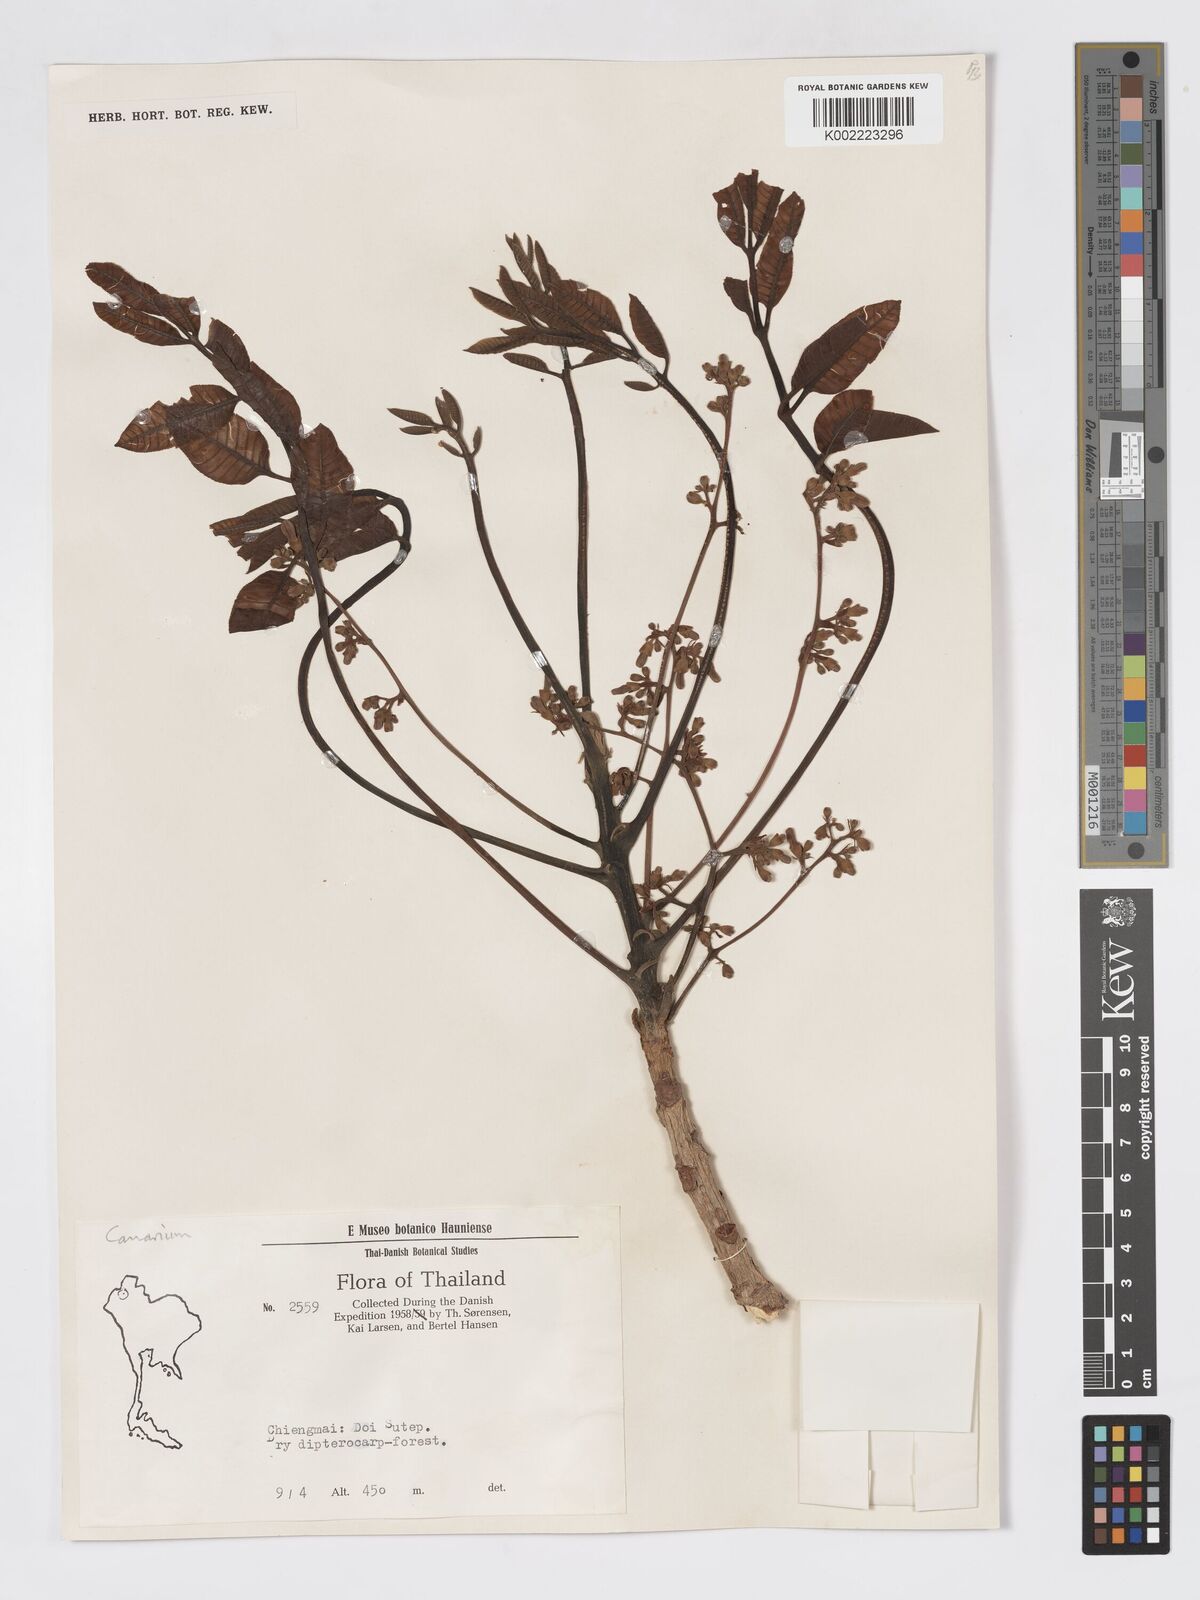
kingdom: Plantae
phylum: Tracheophyta
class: Magnoliopsida
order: Sapindales
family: Burseraceae
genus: Canarium
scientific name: Canarium subulatum
